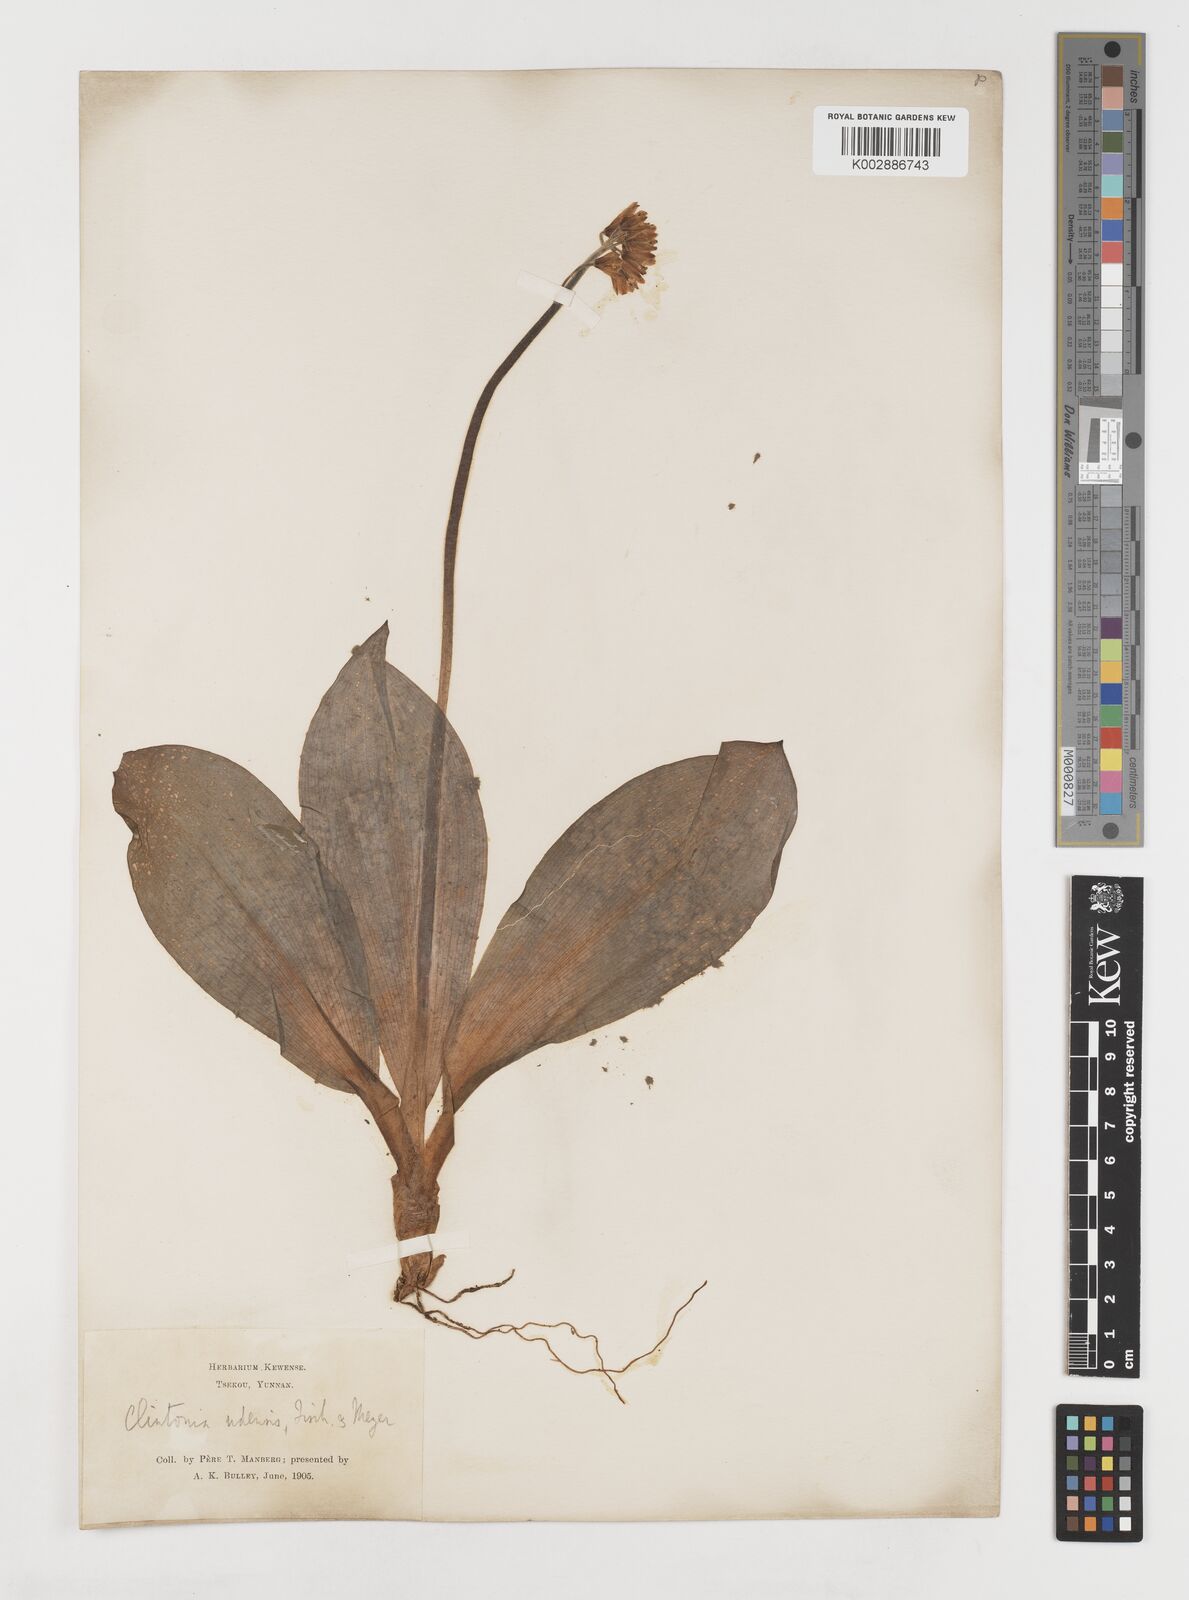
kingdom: Plantae
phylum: Tracheophyta
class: Liliopsida
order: Liliales
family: Liliaceae
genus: Clintonia
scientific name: Clintonia udensis
